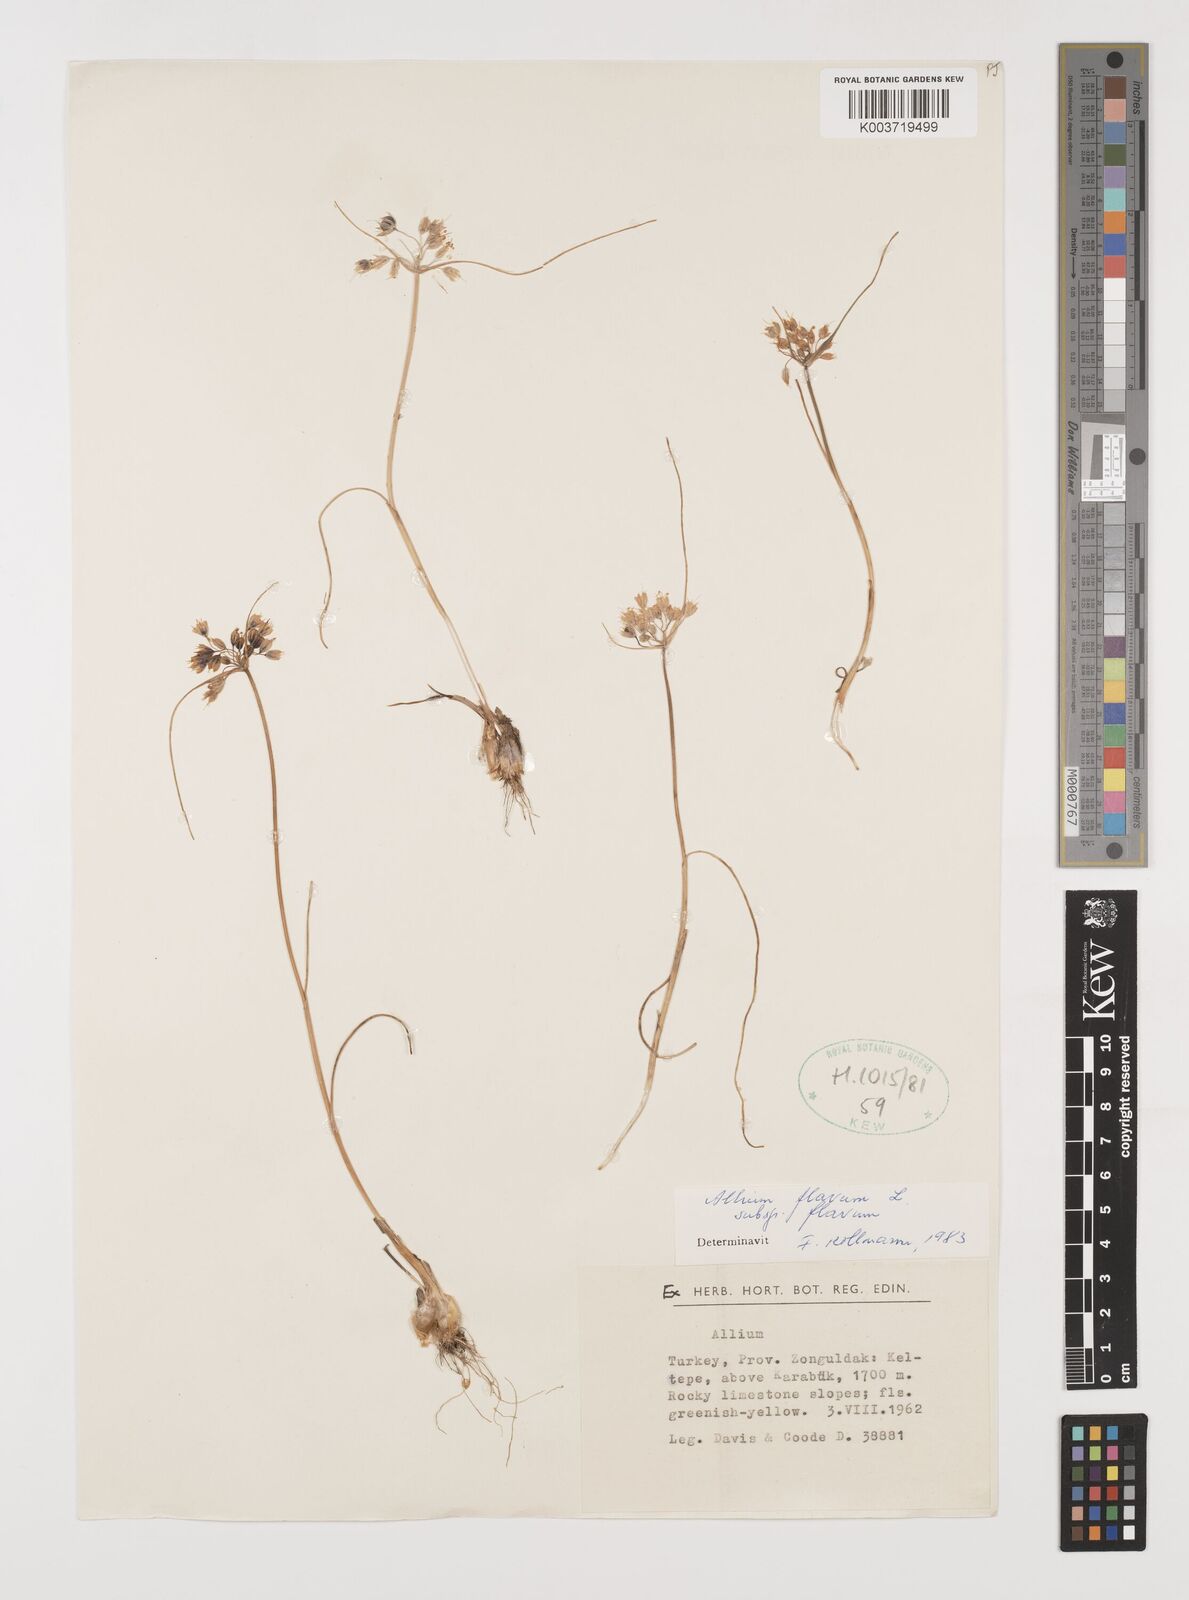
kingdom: Plantae
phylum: Tracheophyta
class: Liliopsida
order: Asparagales
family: Amaryllidaceae
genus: Allium
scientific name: Allium flavum
